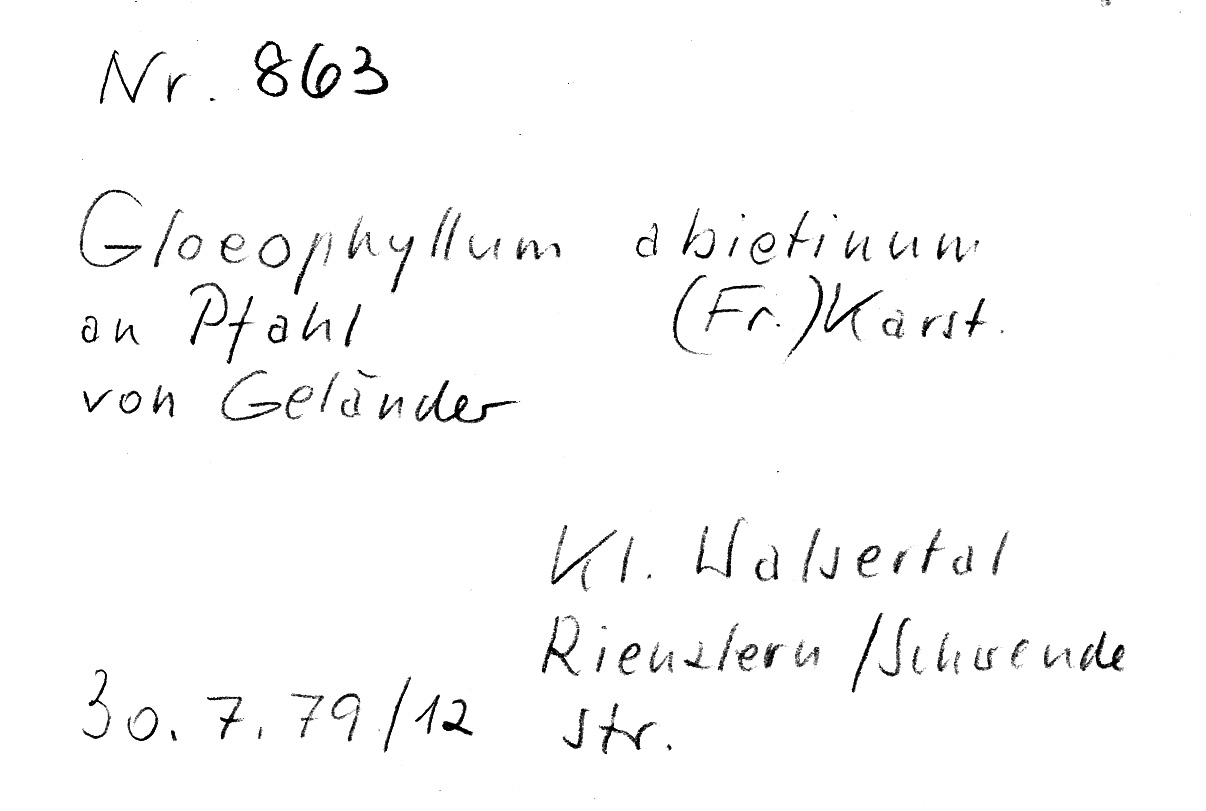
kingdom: Fungi
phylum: Basidiomycota
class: Agaricomycetes
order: Gloeophyllales
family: Gloeophyllaceae
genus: Gloeophyllum
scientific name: Gloeophyllum abietinum
